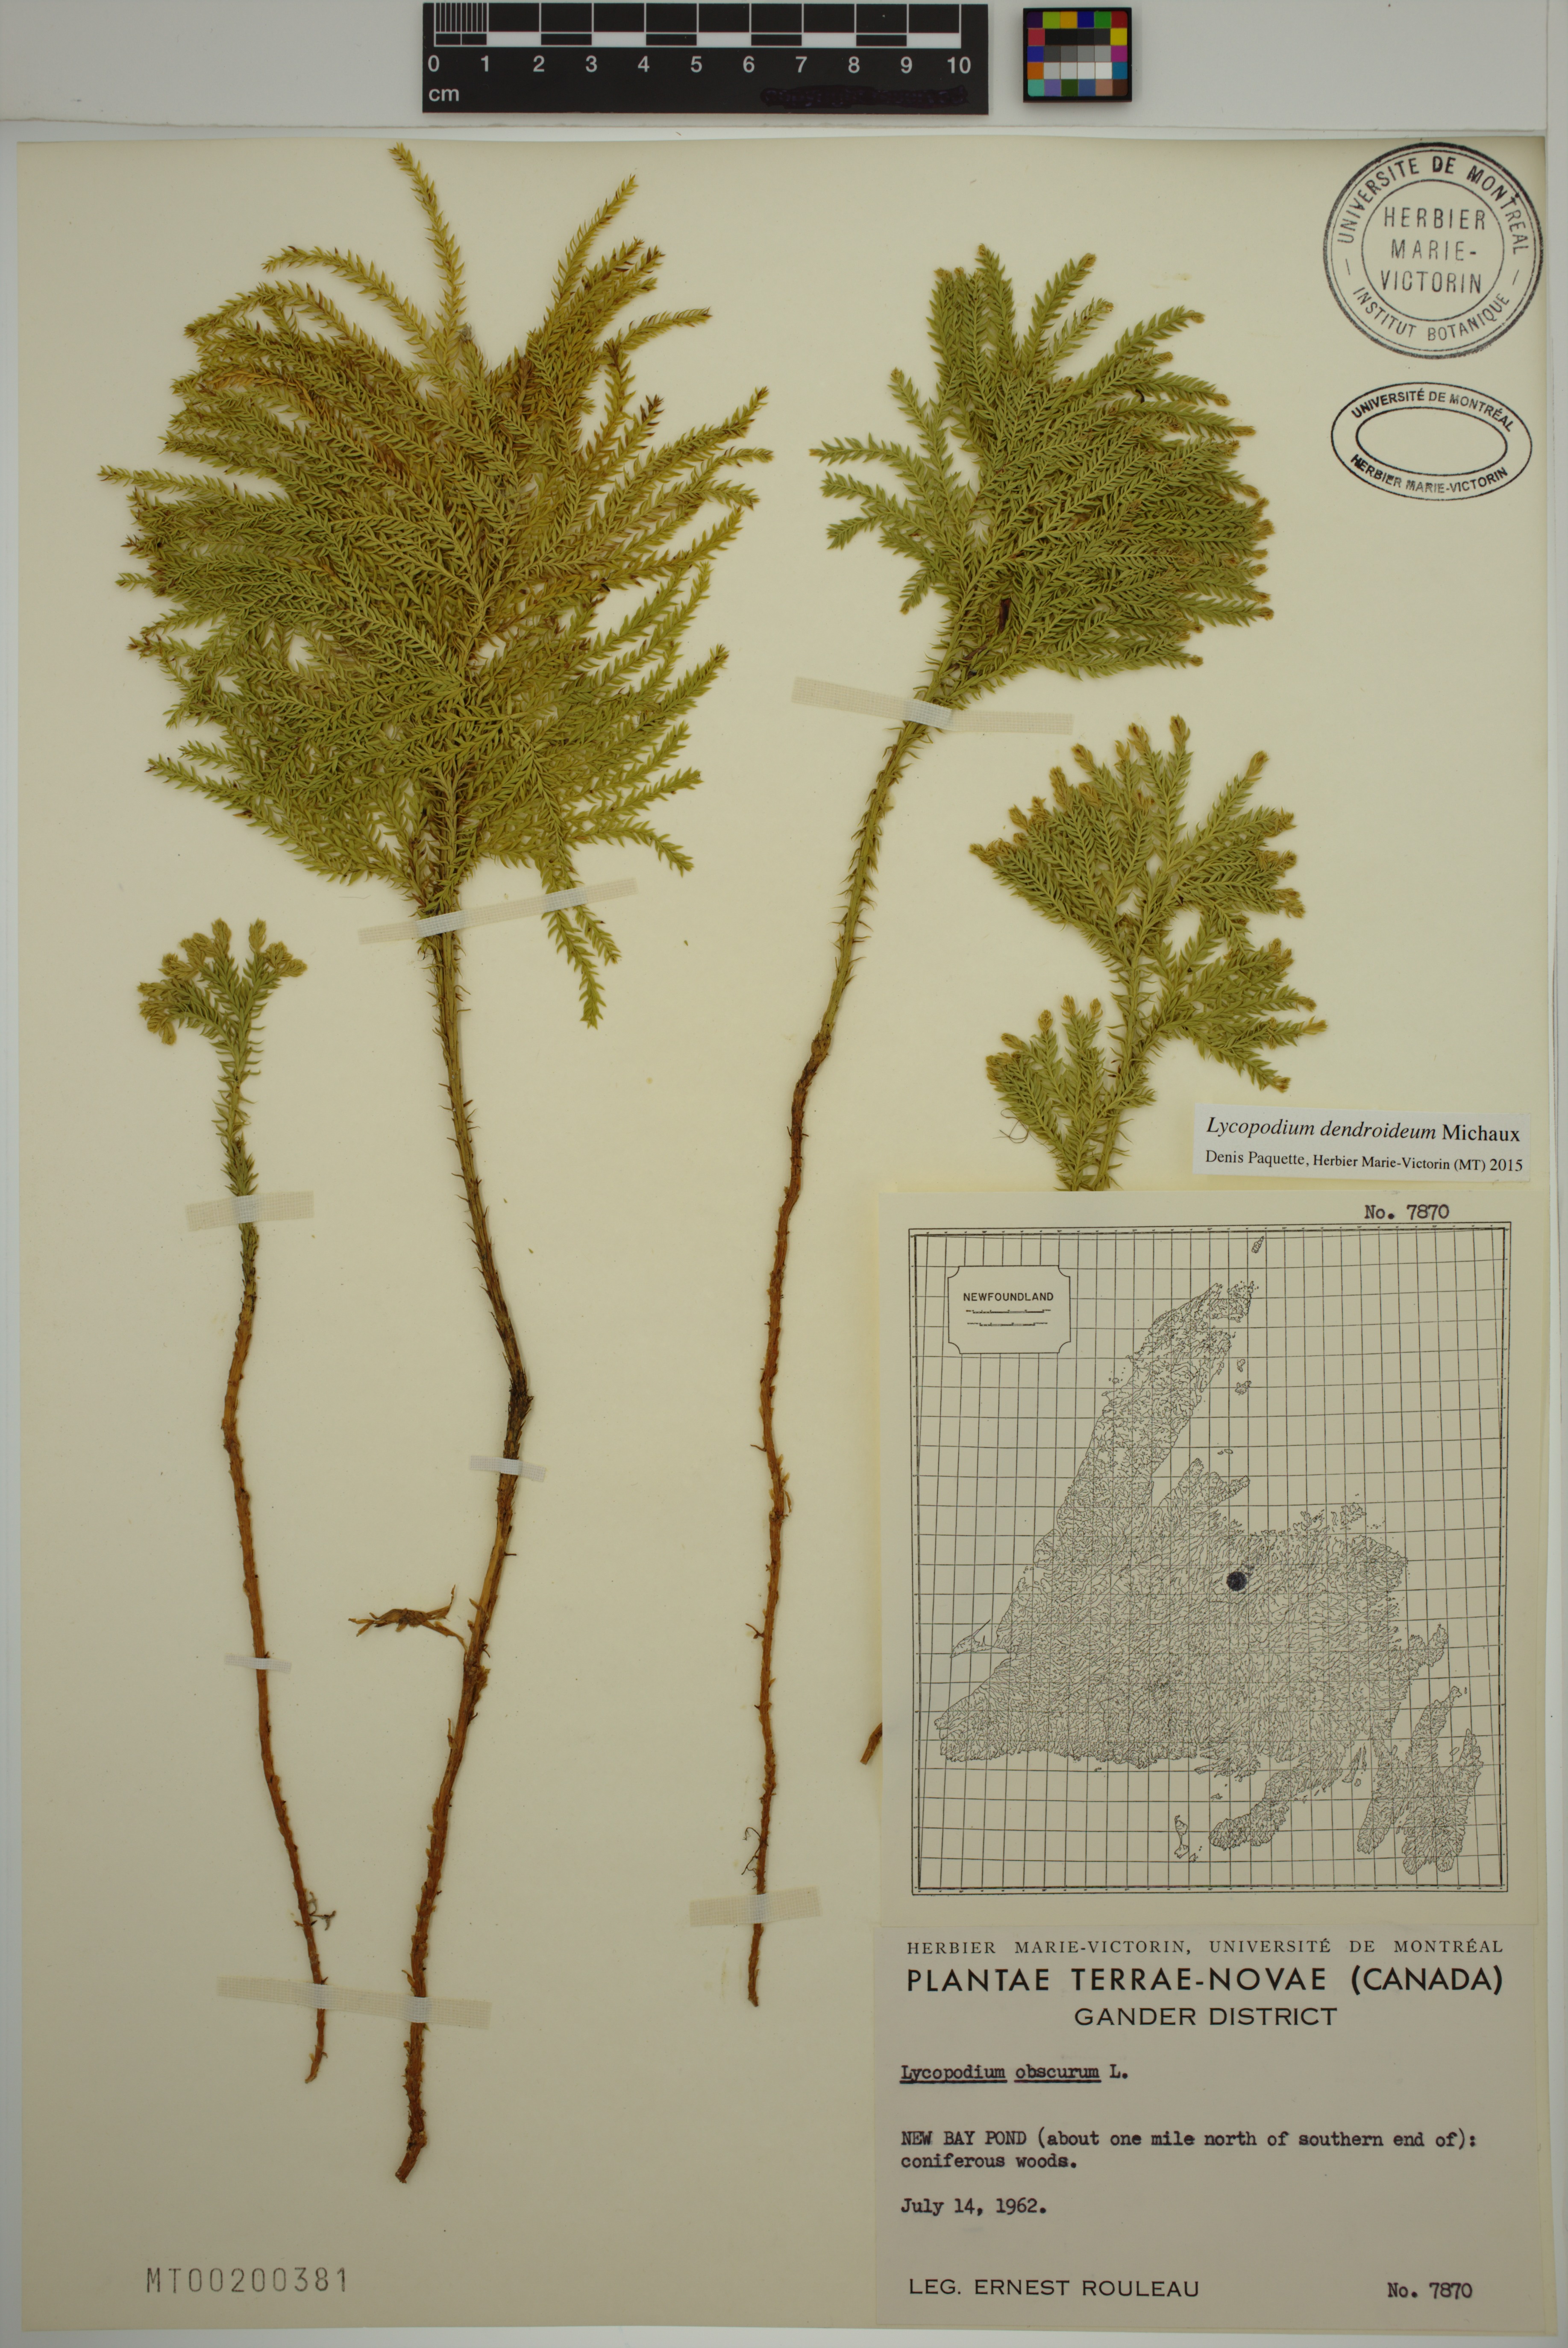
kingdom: Plantae
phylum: Tracheophyta
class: Lycopodiopsida
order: Lycopodiales
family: Lycopodiaceae
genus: Dendrolycopodium
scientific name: Dendrolycopodium dendroideum
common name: Northern tree-clubmoss
